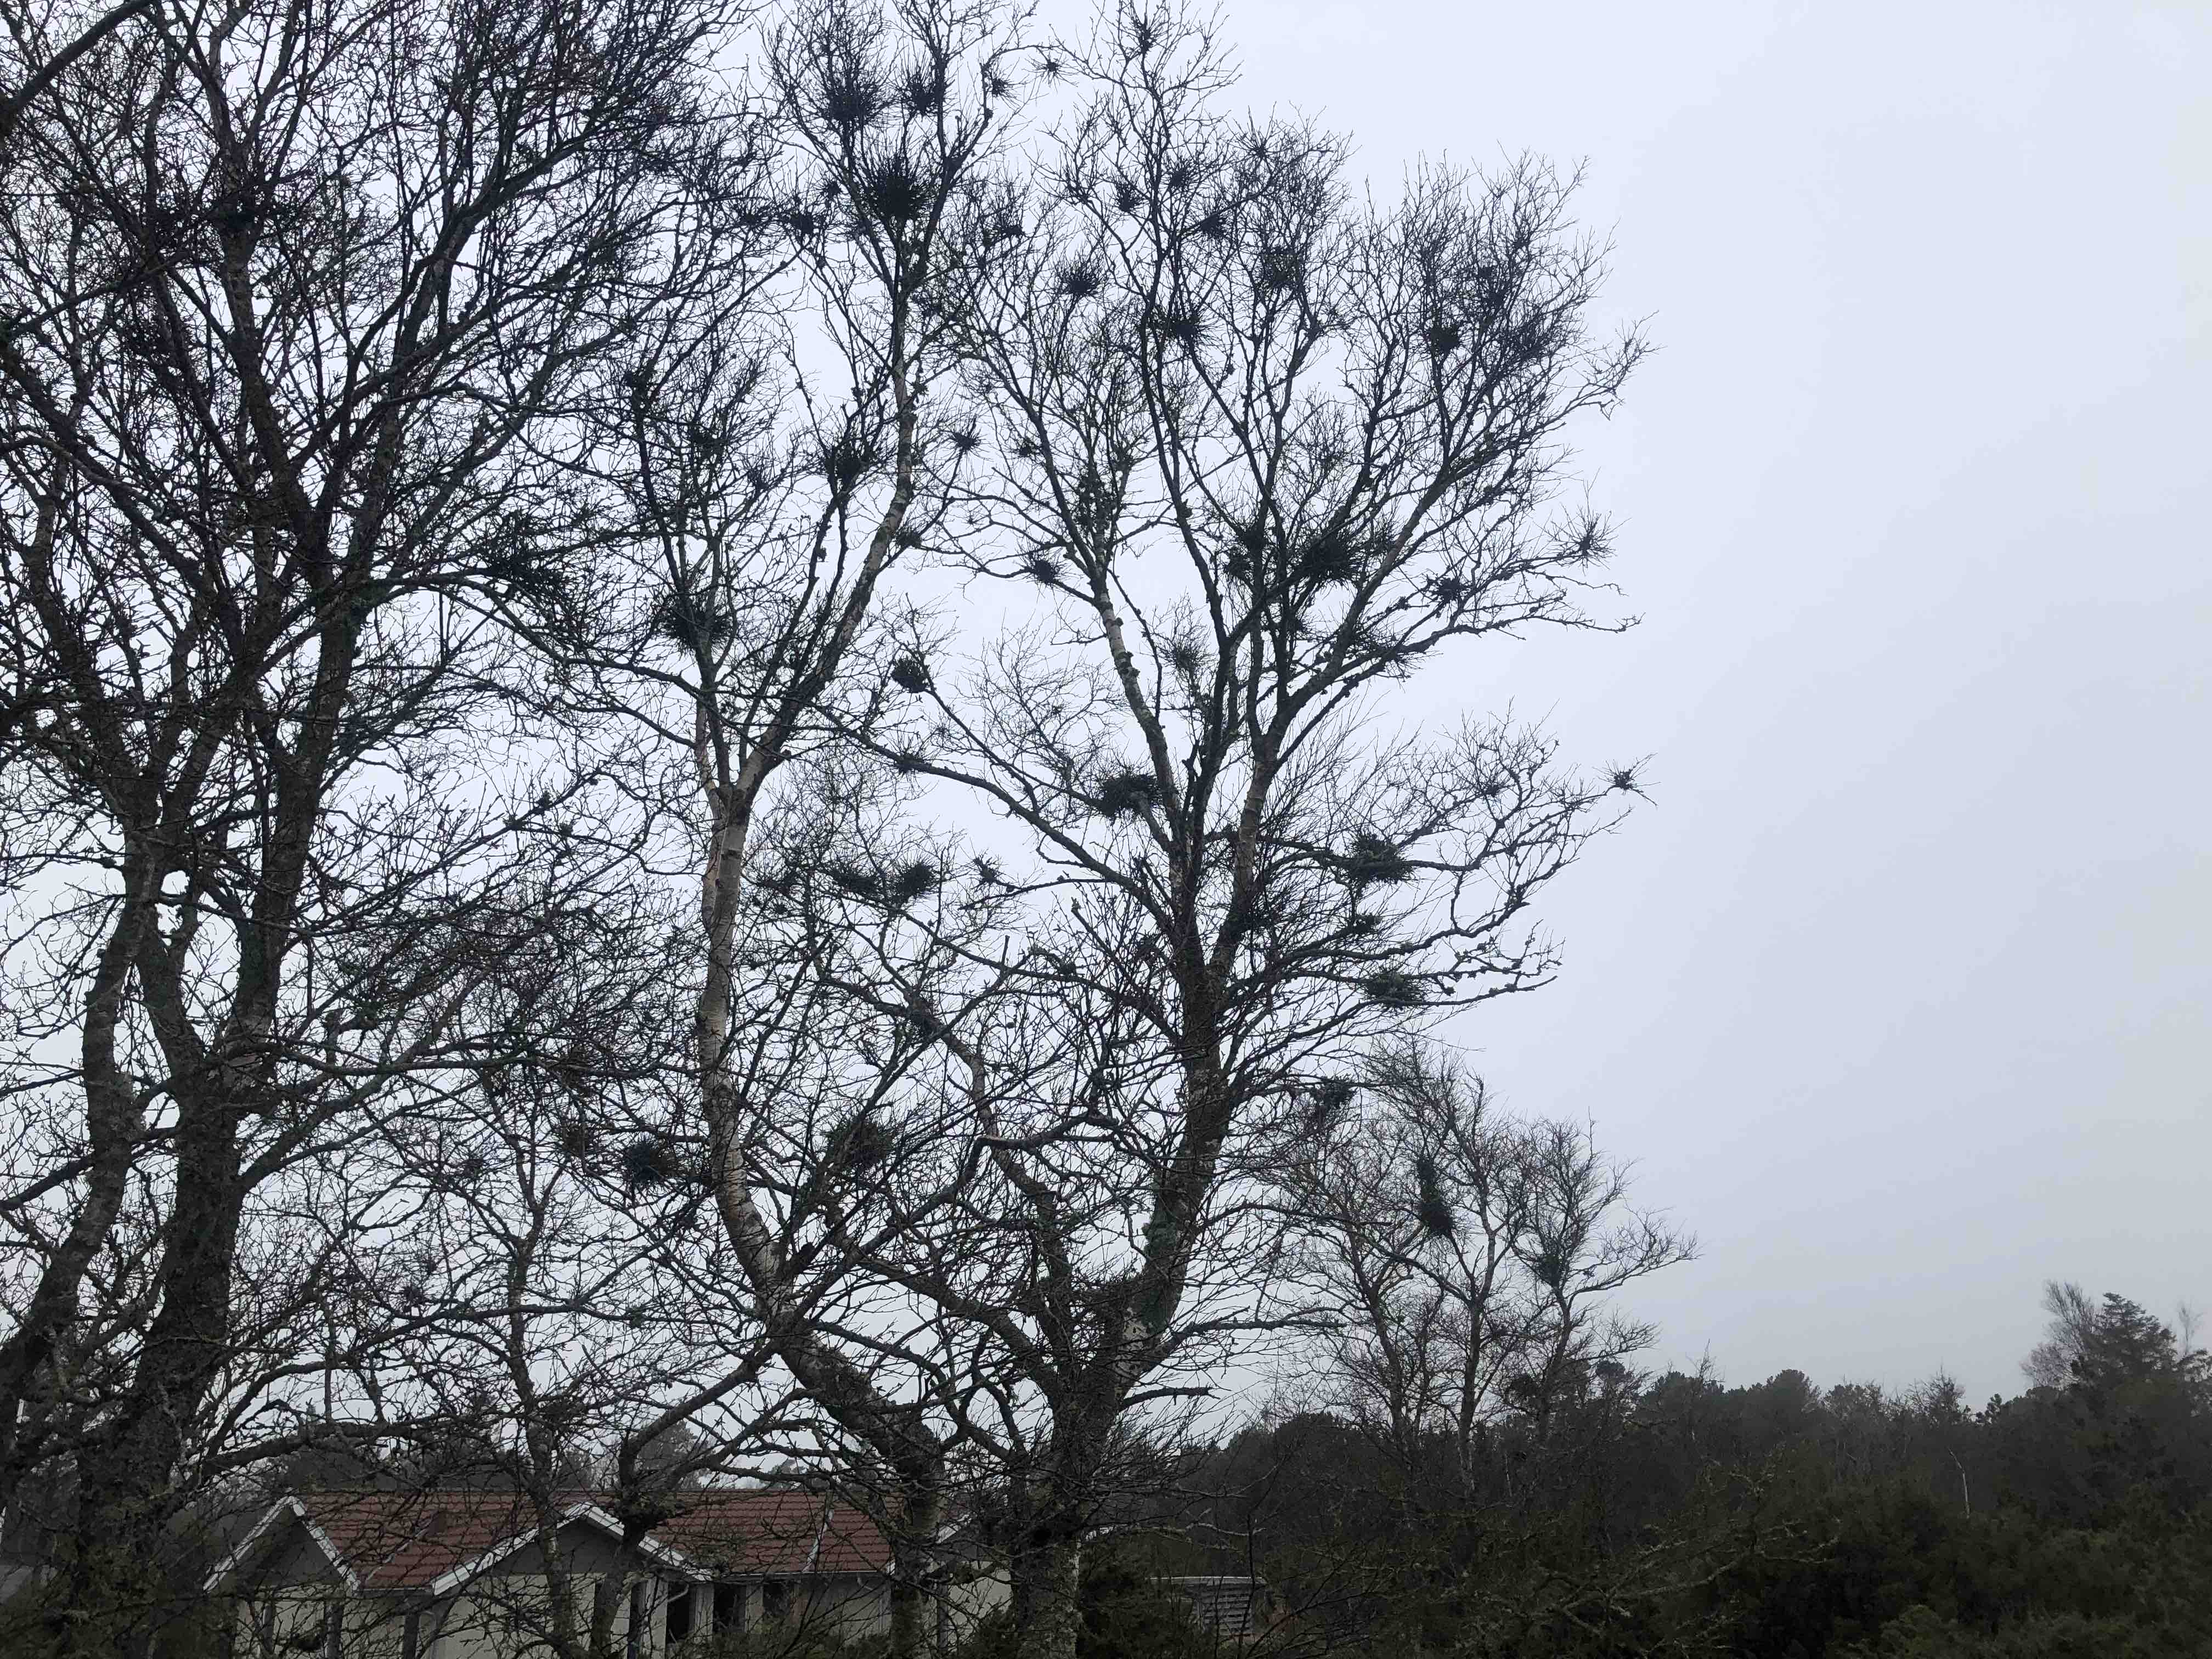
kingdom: Fungi
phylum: Ascomycota
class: Taphrinomycetes
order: Taphrinales
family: Taphrinaceae
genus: Taphrina
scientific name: Taphrina betulina
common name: hekse-sækdug
